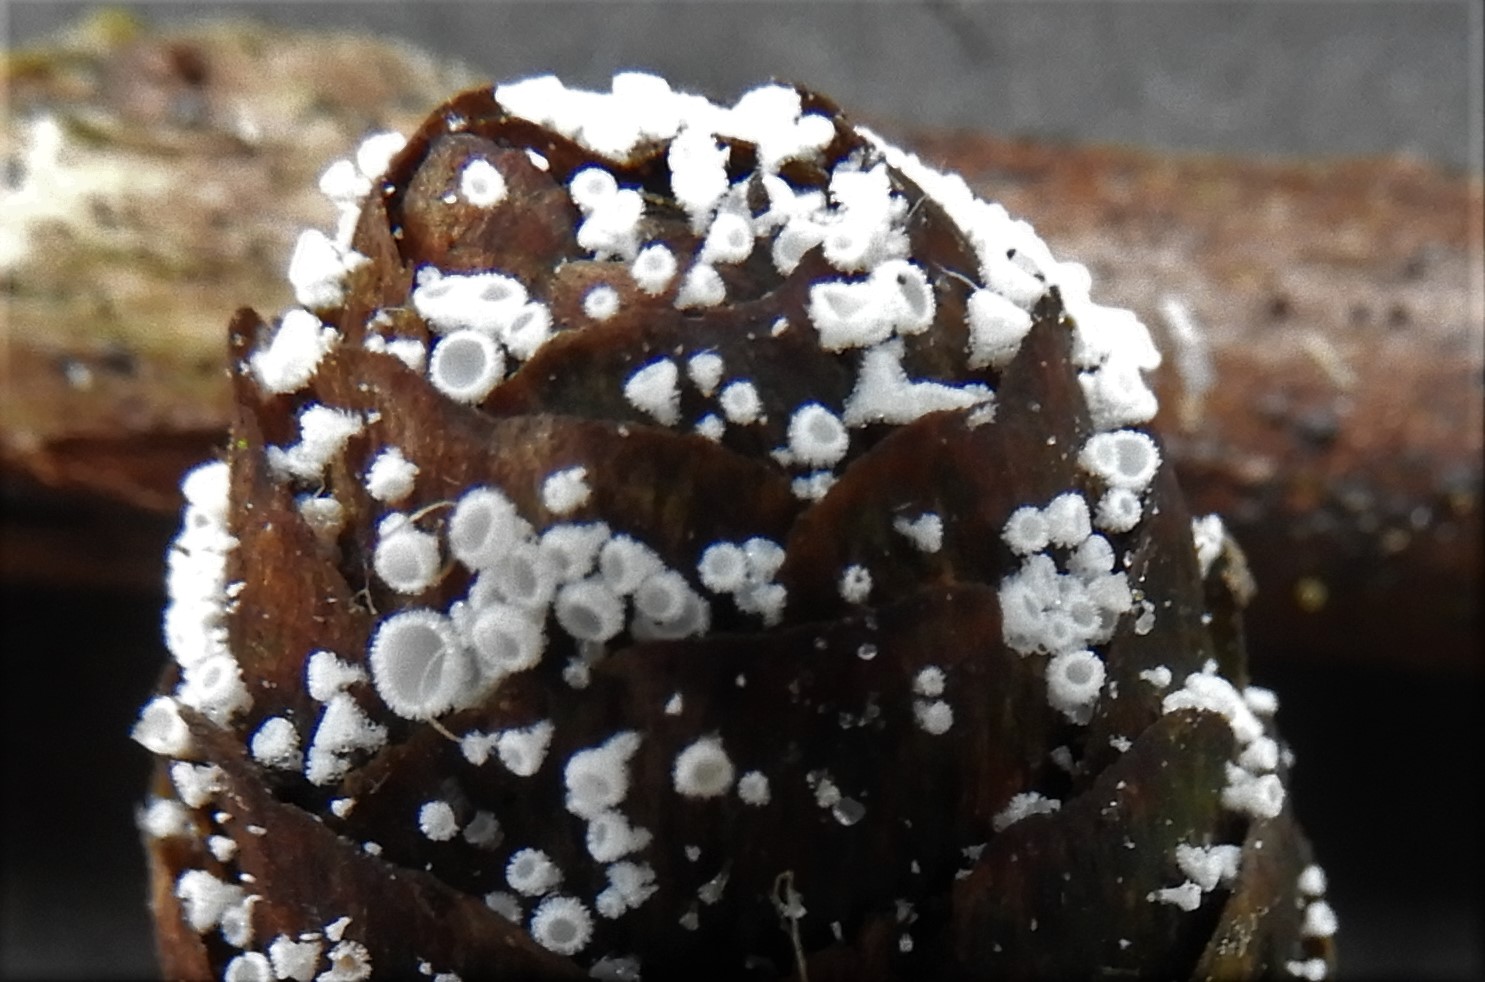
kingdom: Fungi
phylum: Ascomycota
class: Leotiomycetes
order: Helotiales
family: Lachnaceae
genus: Lachnum
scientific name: Lachnum virgineum
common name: jomfru-frynseskive
